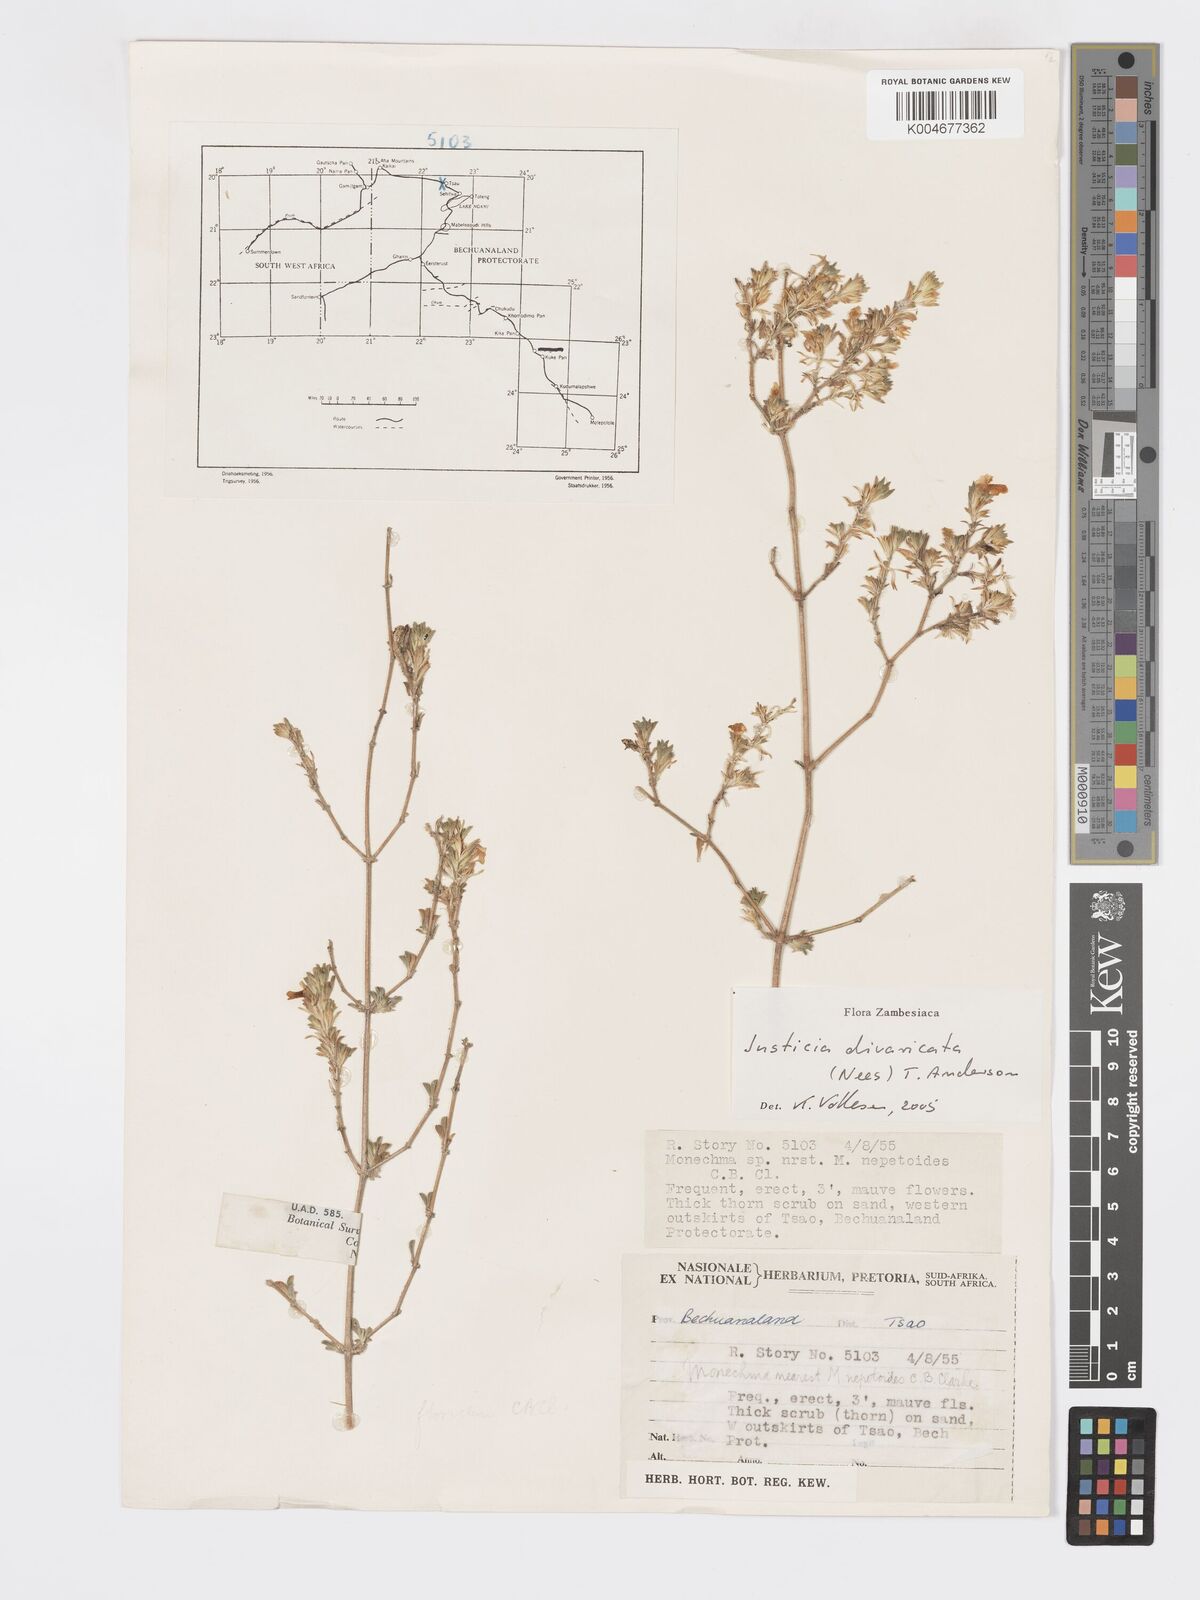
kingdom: Plantae
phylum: Tracheophyta
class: Magnoliopsida
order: Lamiales
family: Acanthaceae
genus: Pogonospermum
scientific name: Pogonospermum
